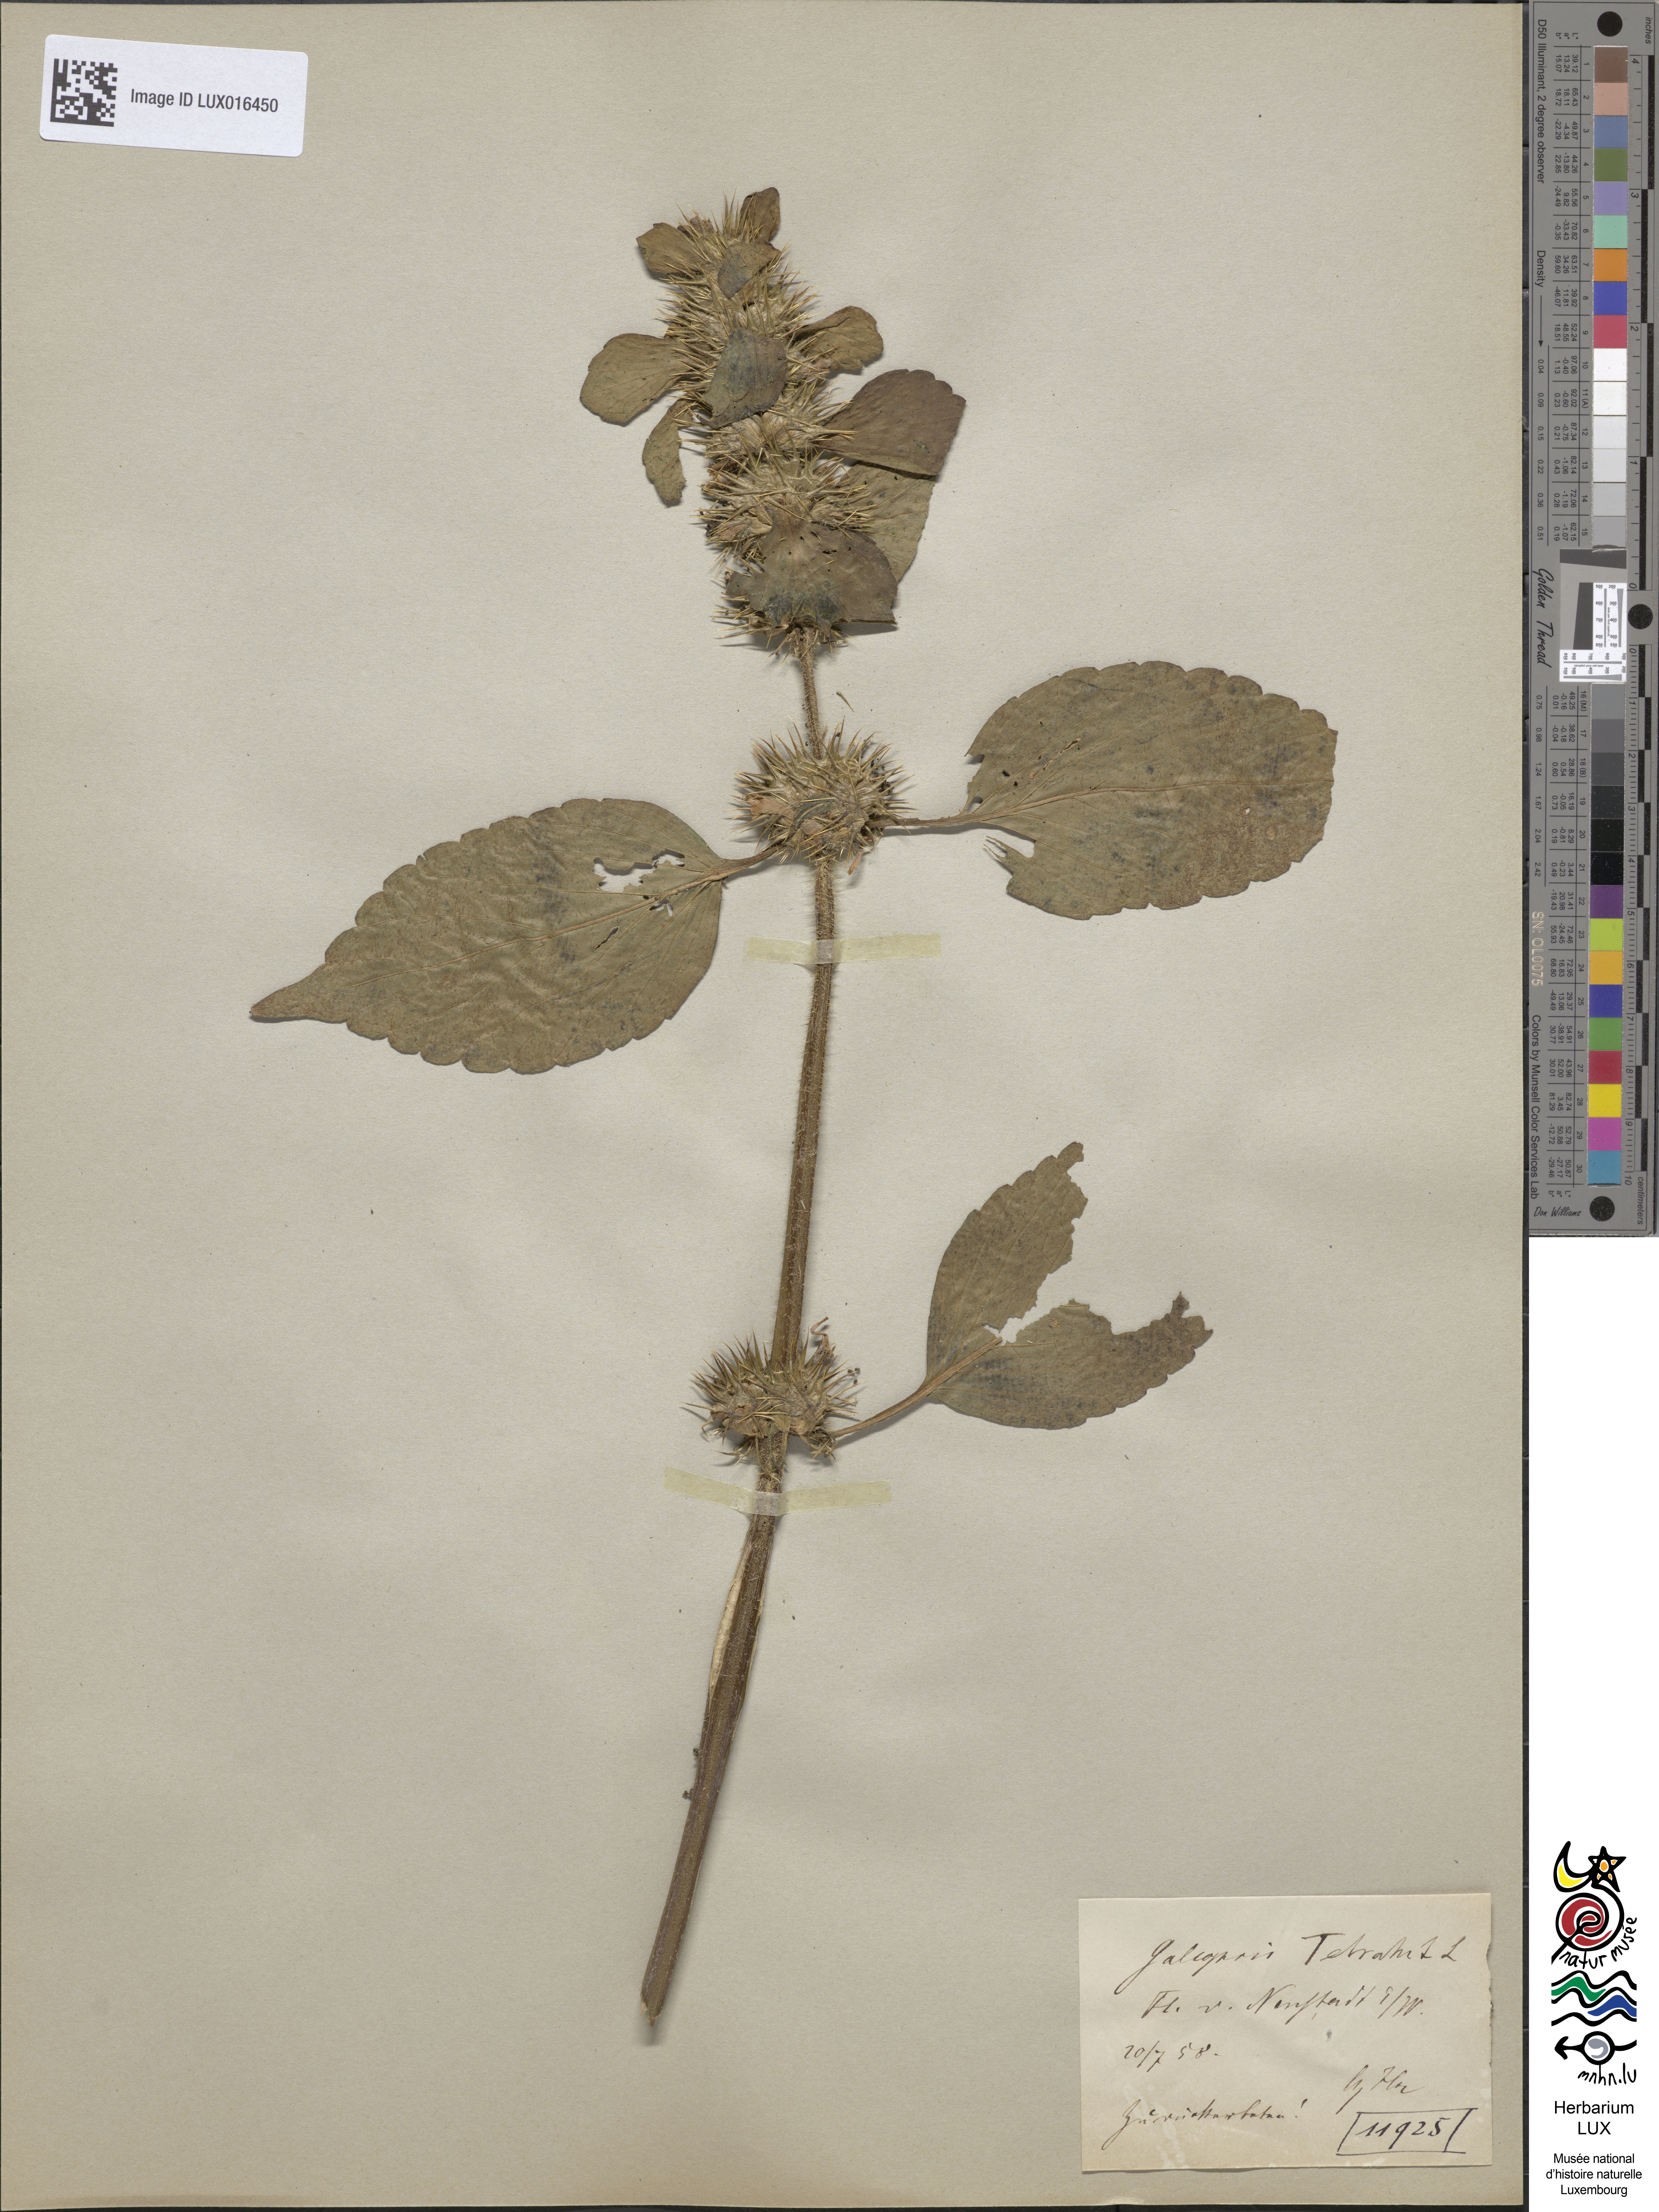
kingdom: Plantae
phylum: Tracheophyta
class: Magnoliopsida
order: Lamiales
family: Lamiaceae
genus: Galeopsis
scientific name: Galeopsis tetrahit
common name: Common hemp-nettle
